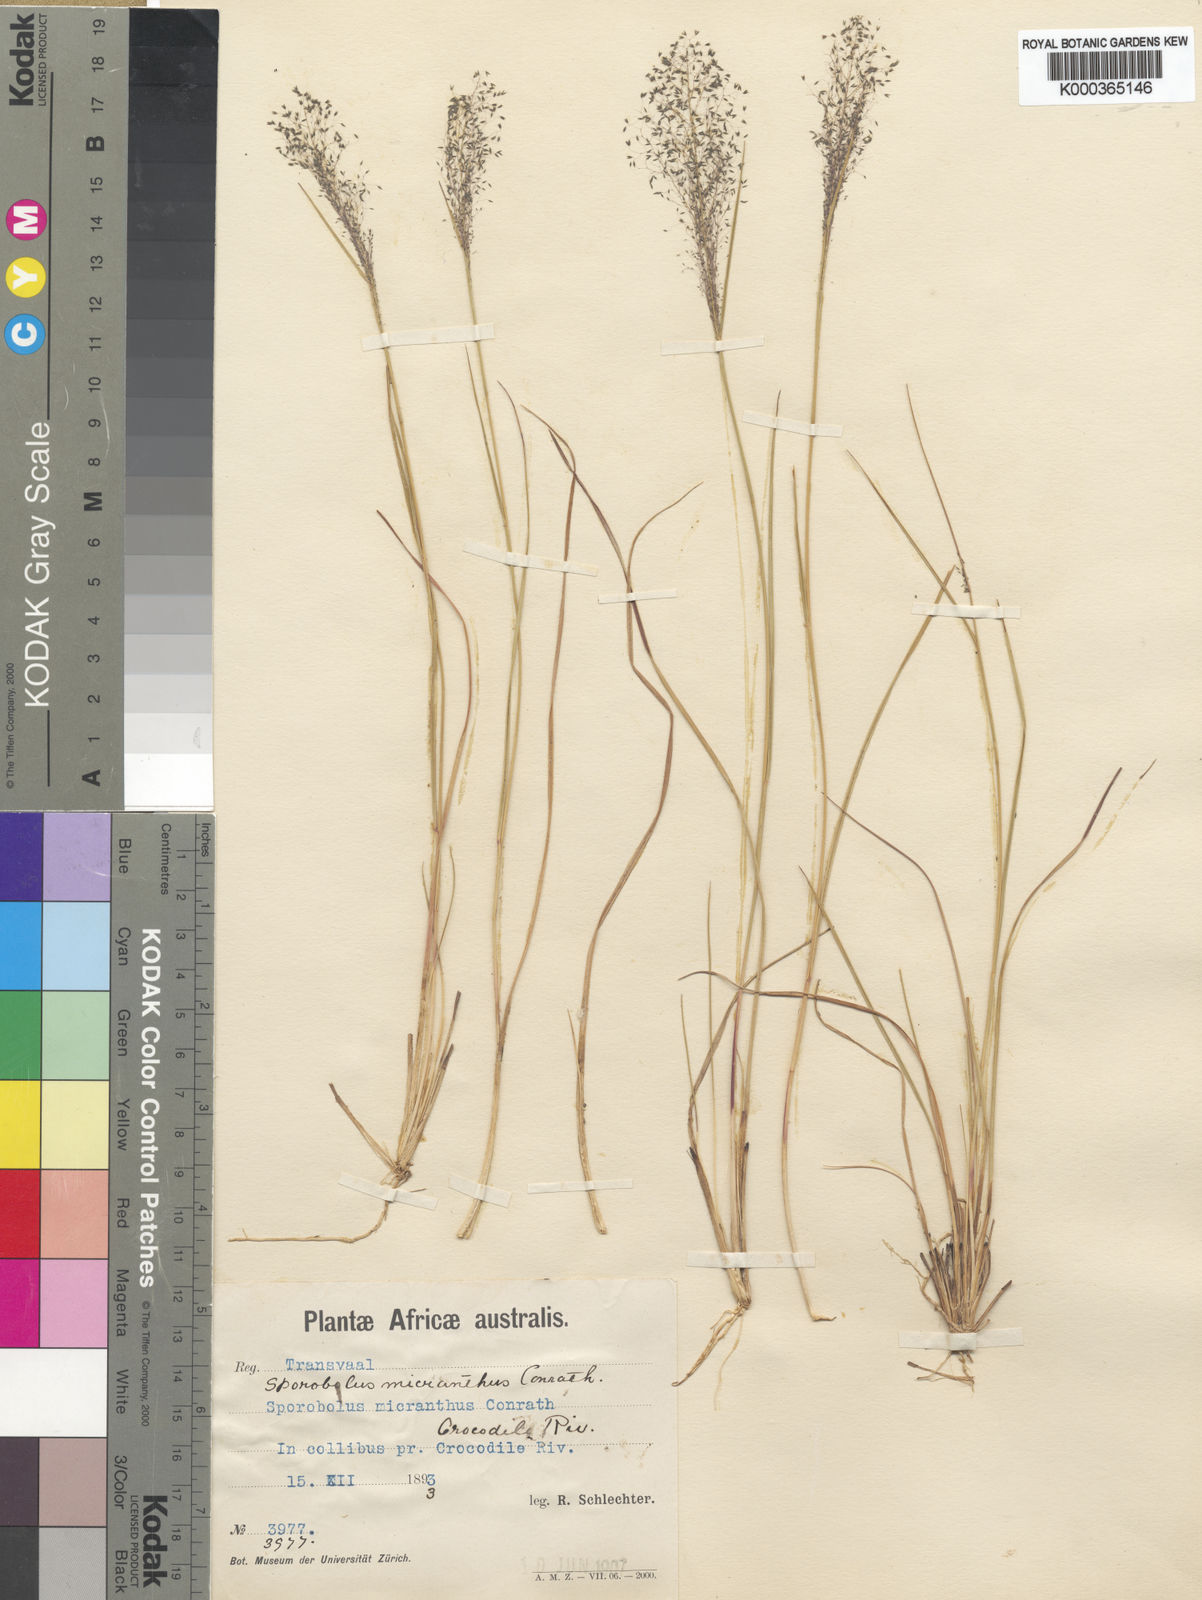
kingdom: Plantae
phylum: Tracheophyta
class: Liliopsida
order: Poales
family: Poaceae
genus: Sporobolus
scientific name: Sporobolus welwitschii
